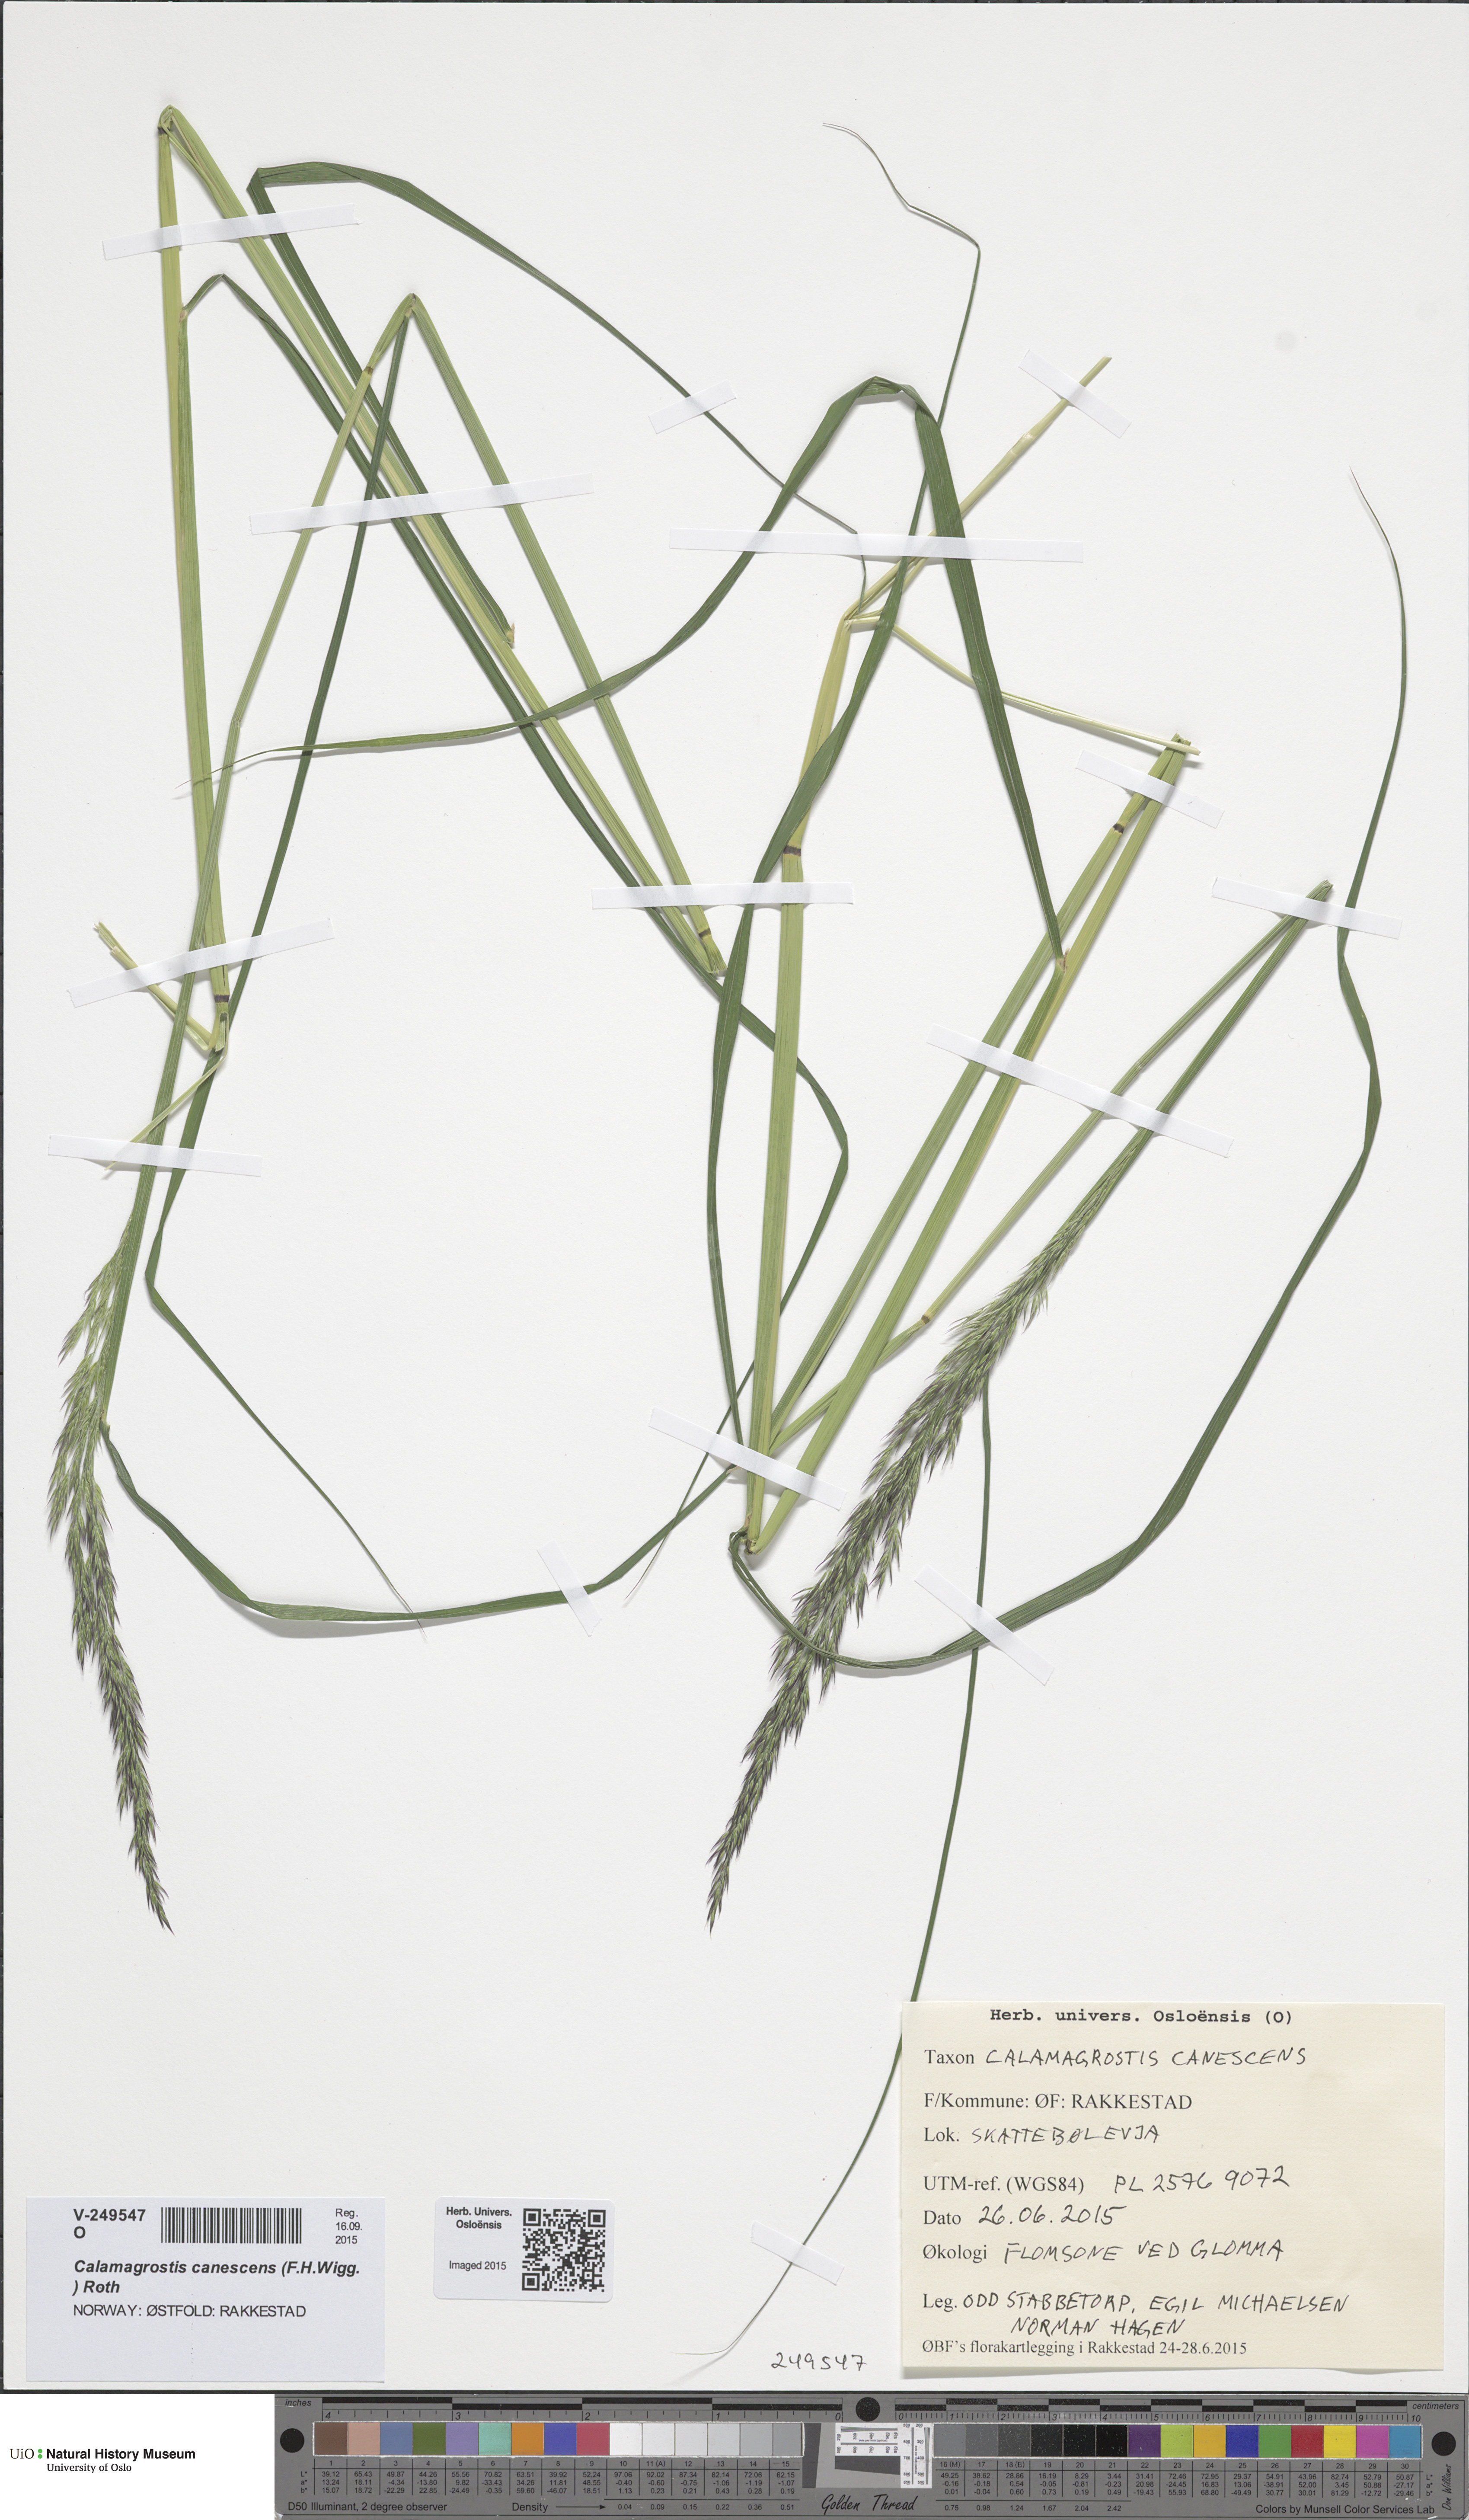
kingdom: Plantae
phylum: Tracheophyta
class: Liliopsida
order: Poales
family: Poaceae
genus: Calamagrostis
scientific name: Calamagrostis purpurea
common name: Scandinavian small-reed
